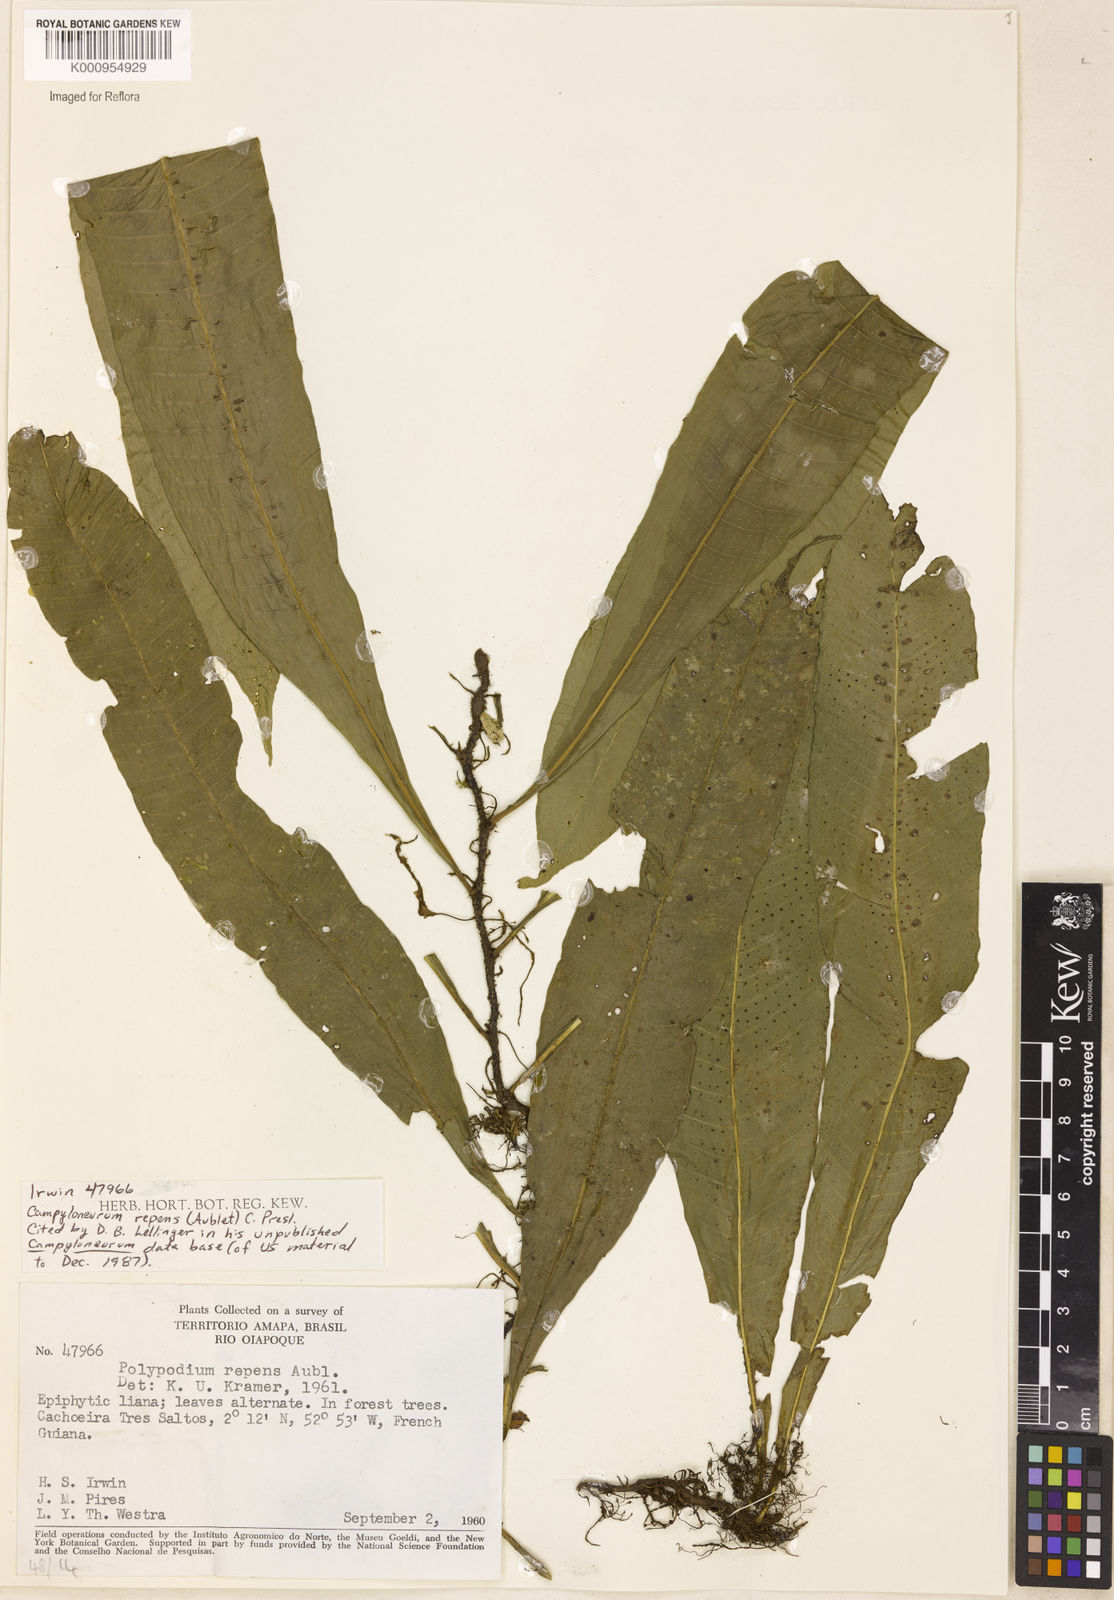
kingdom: Plantae
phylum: Tracheophyta
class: Polypodiopsida
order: Polypodiales
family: Polypodiaceae
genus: Campyloneurum
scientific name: Campyloneurum repens
